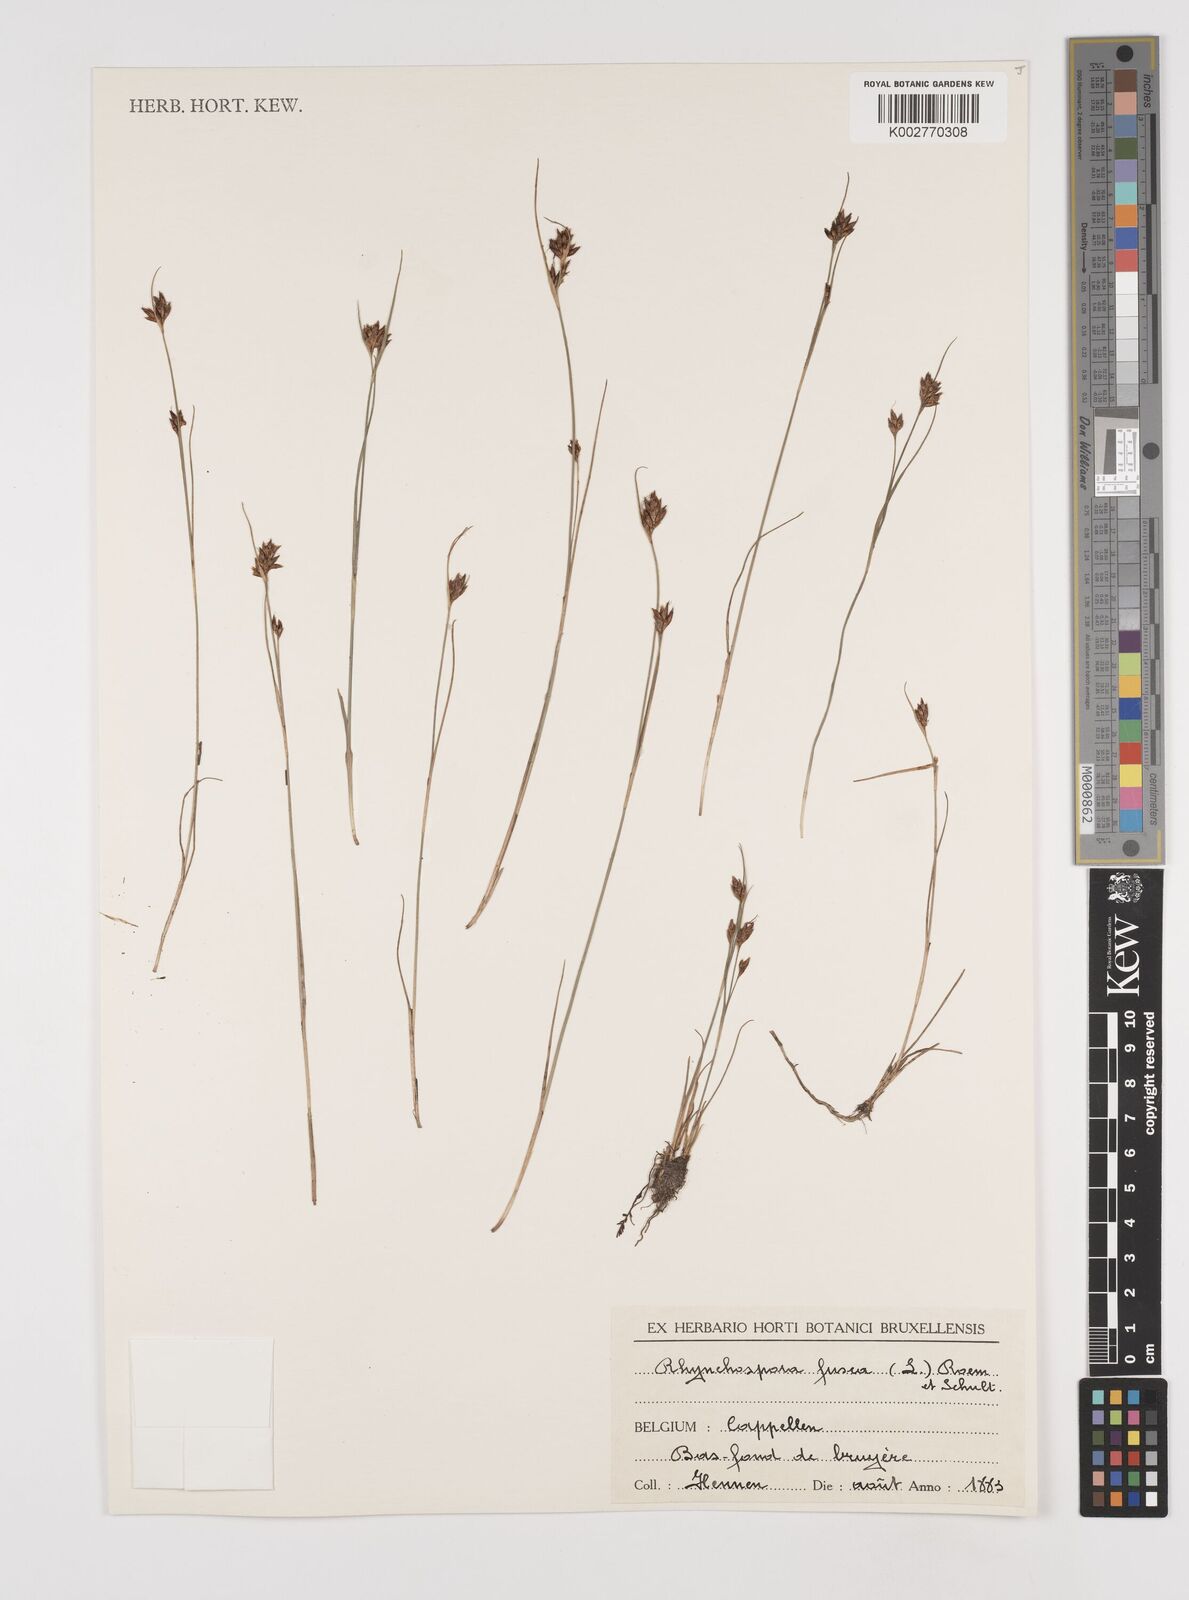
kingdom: Plantae
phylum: Tracheophyta
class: Liliopsida
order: Poales
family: Cyperaceae
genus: Rhynchospora
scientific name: Rhynchospora fusca
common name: Brown beak-sedge
